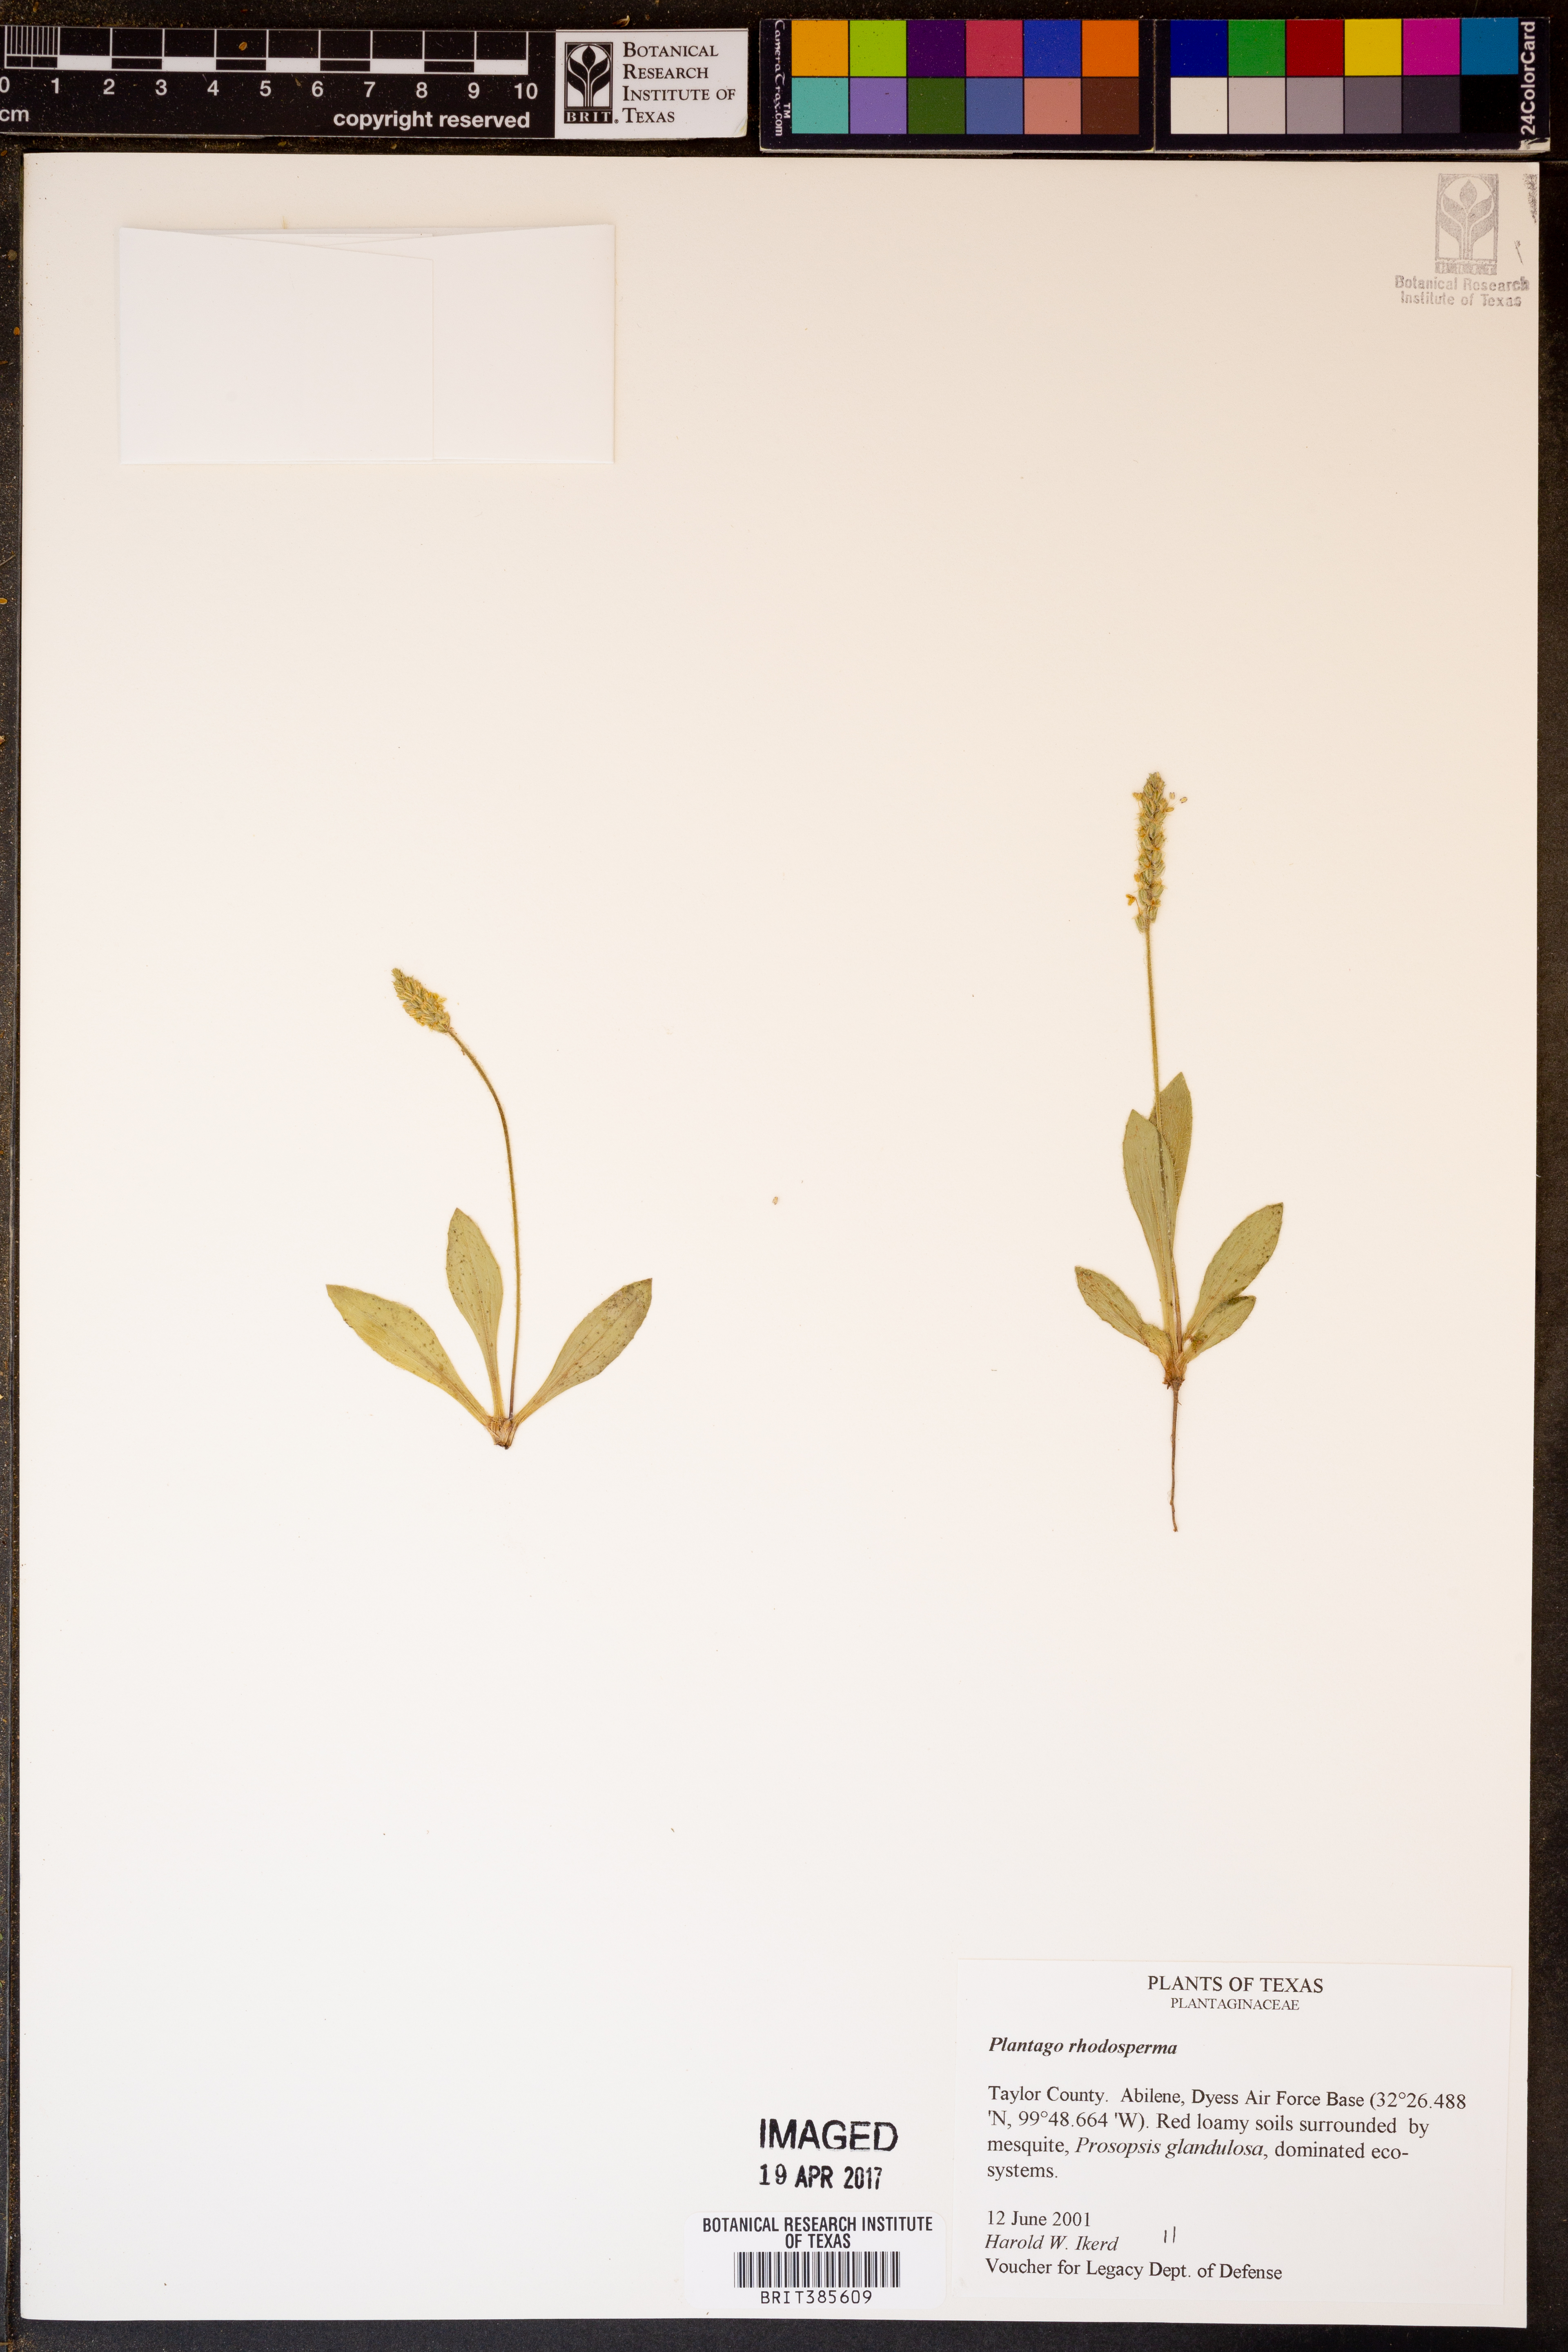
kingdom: Plantae
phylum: Tracheophyta
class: Magnoliopsida
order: Lamiales
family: Plantaginaceae
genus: Plantago
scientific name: Plantago rhodosperma
